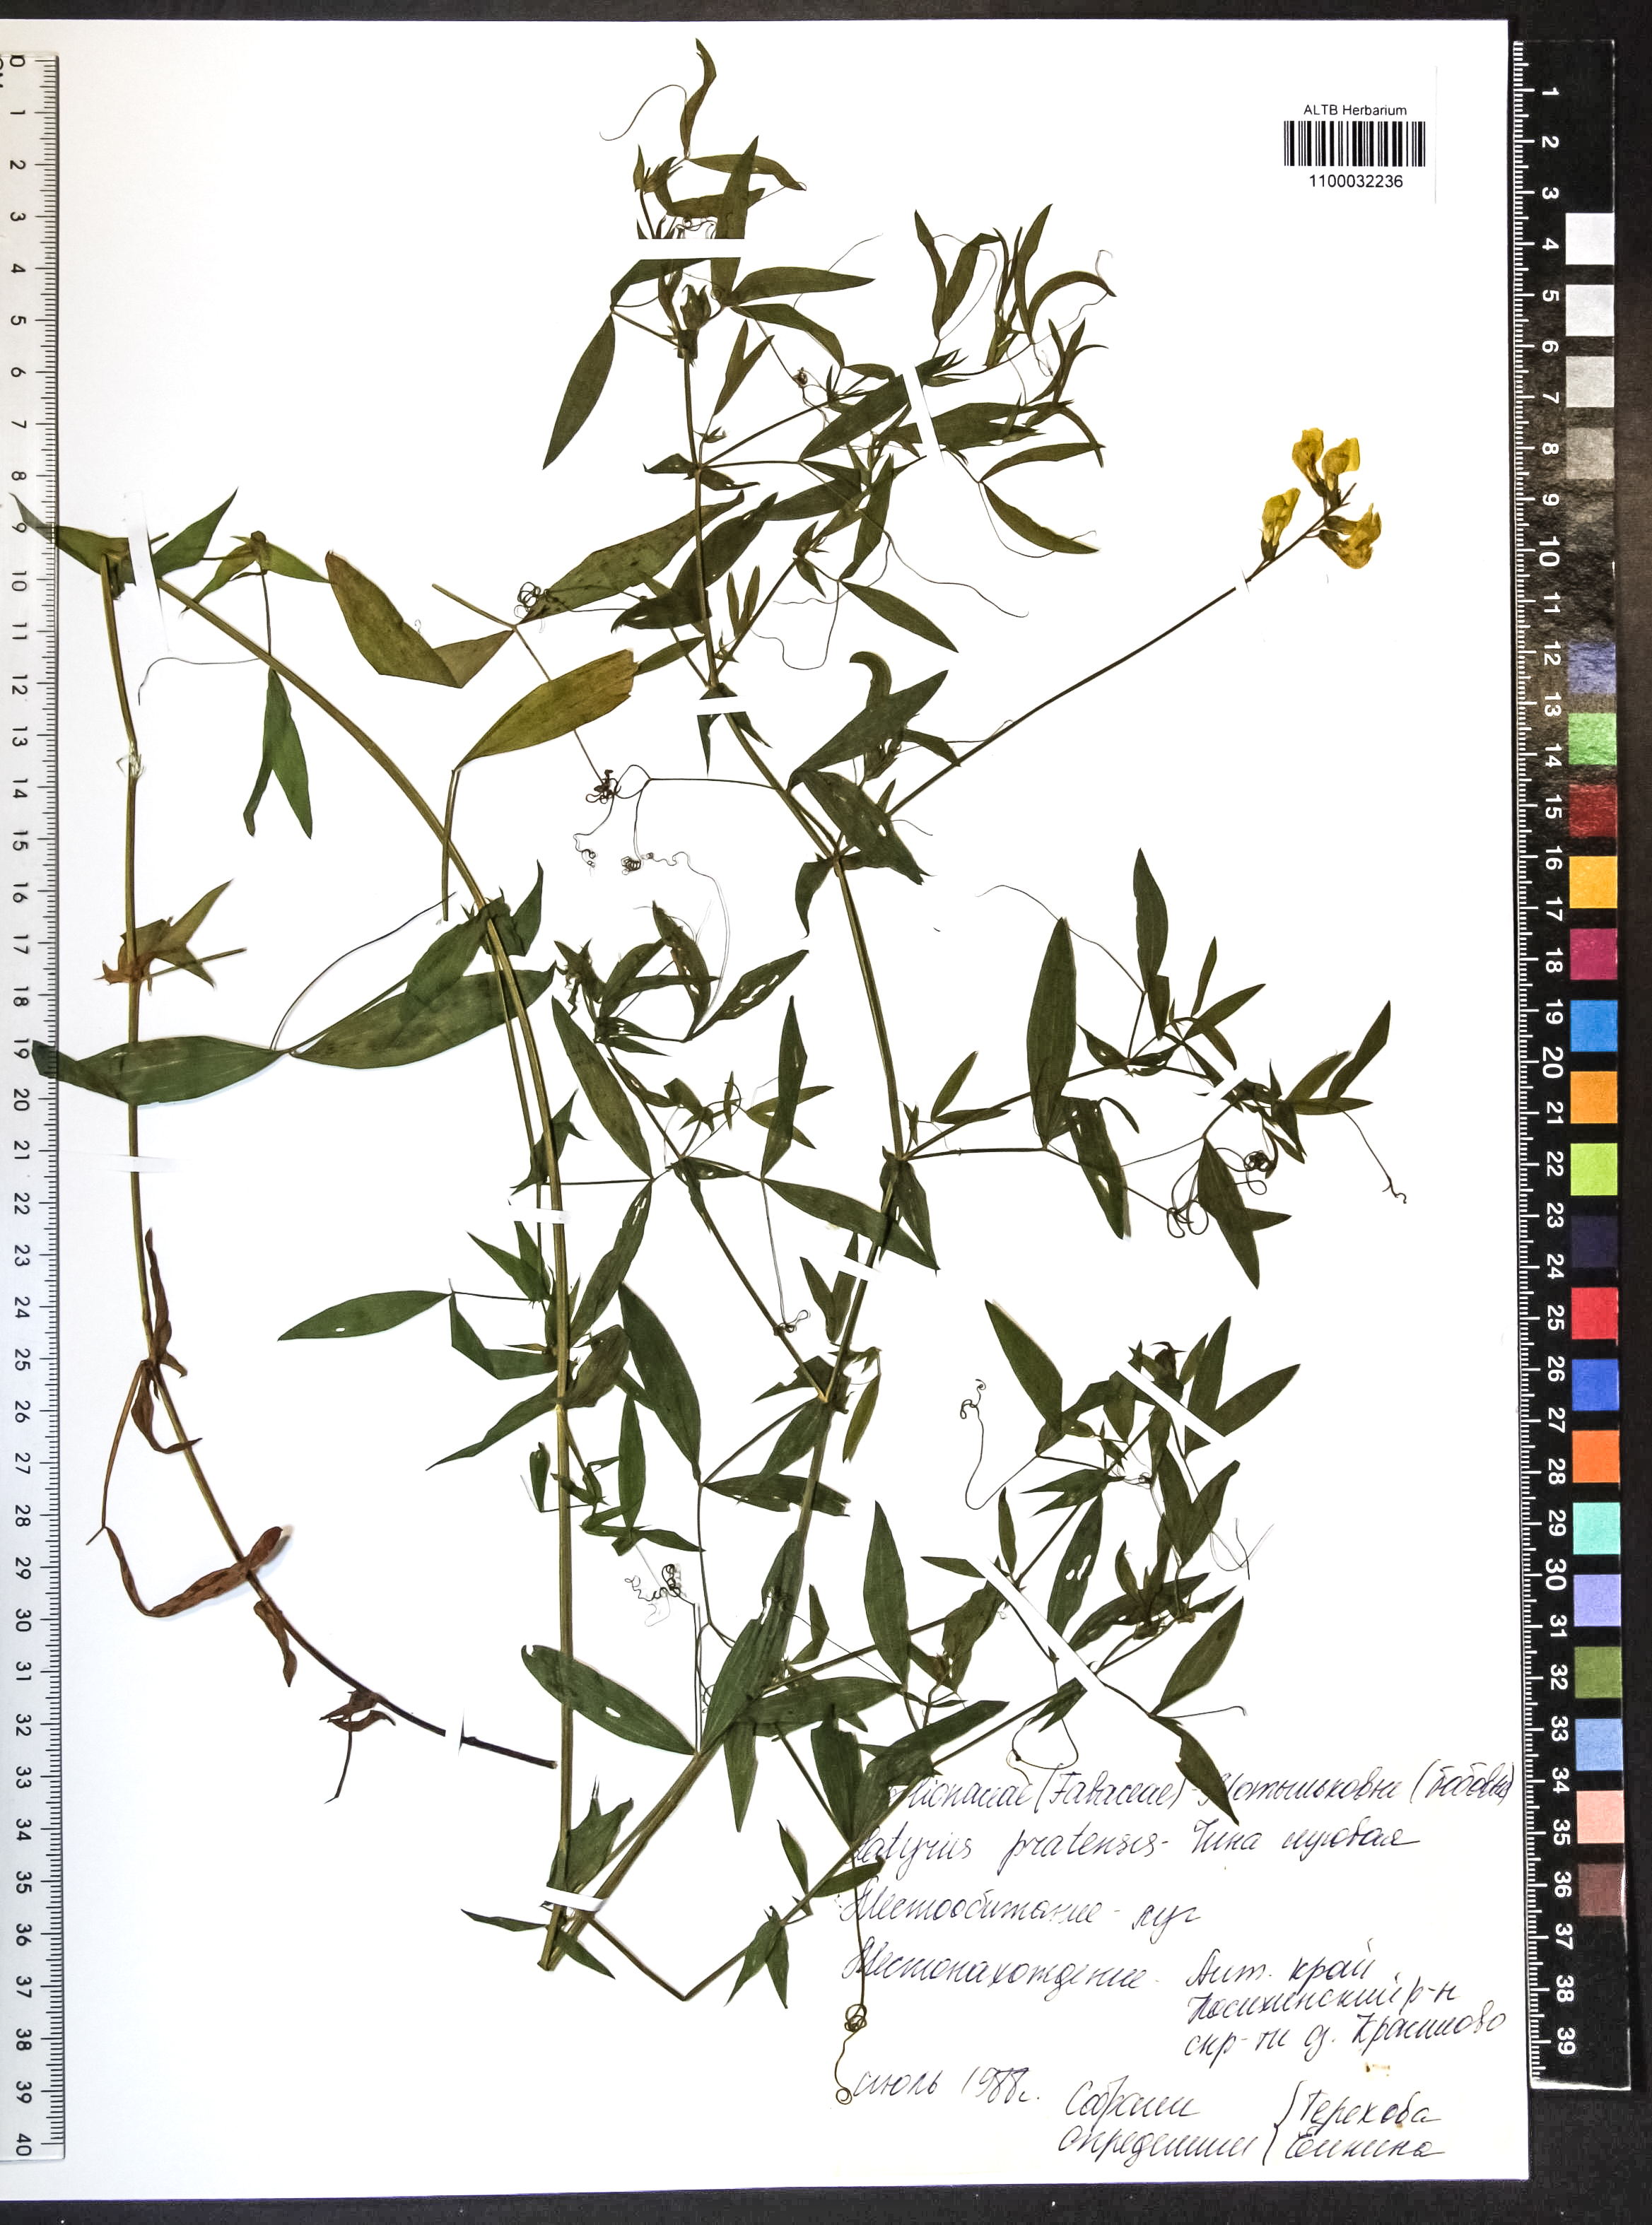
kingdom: Plantae
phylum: Tracheophyta
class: Magnoliopsida
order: Fabales
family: Fabaceae
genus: Lathyrus
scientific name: Lathyrus pratensis
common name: Meadow vetchling
